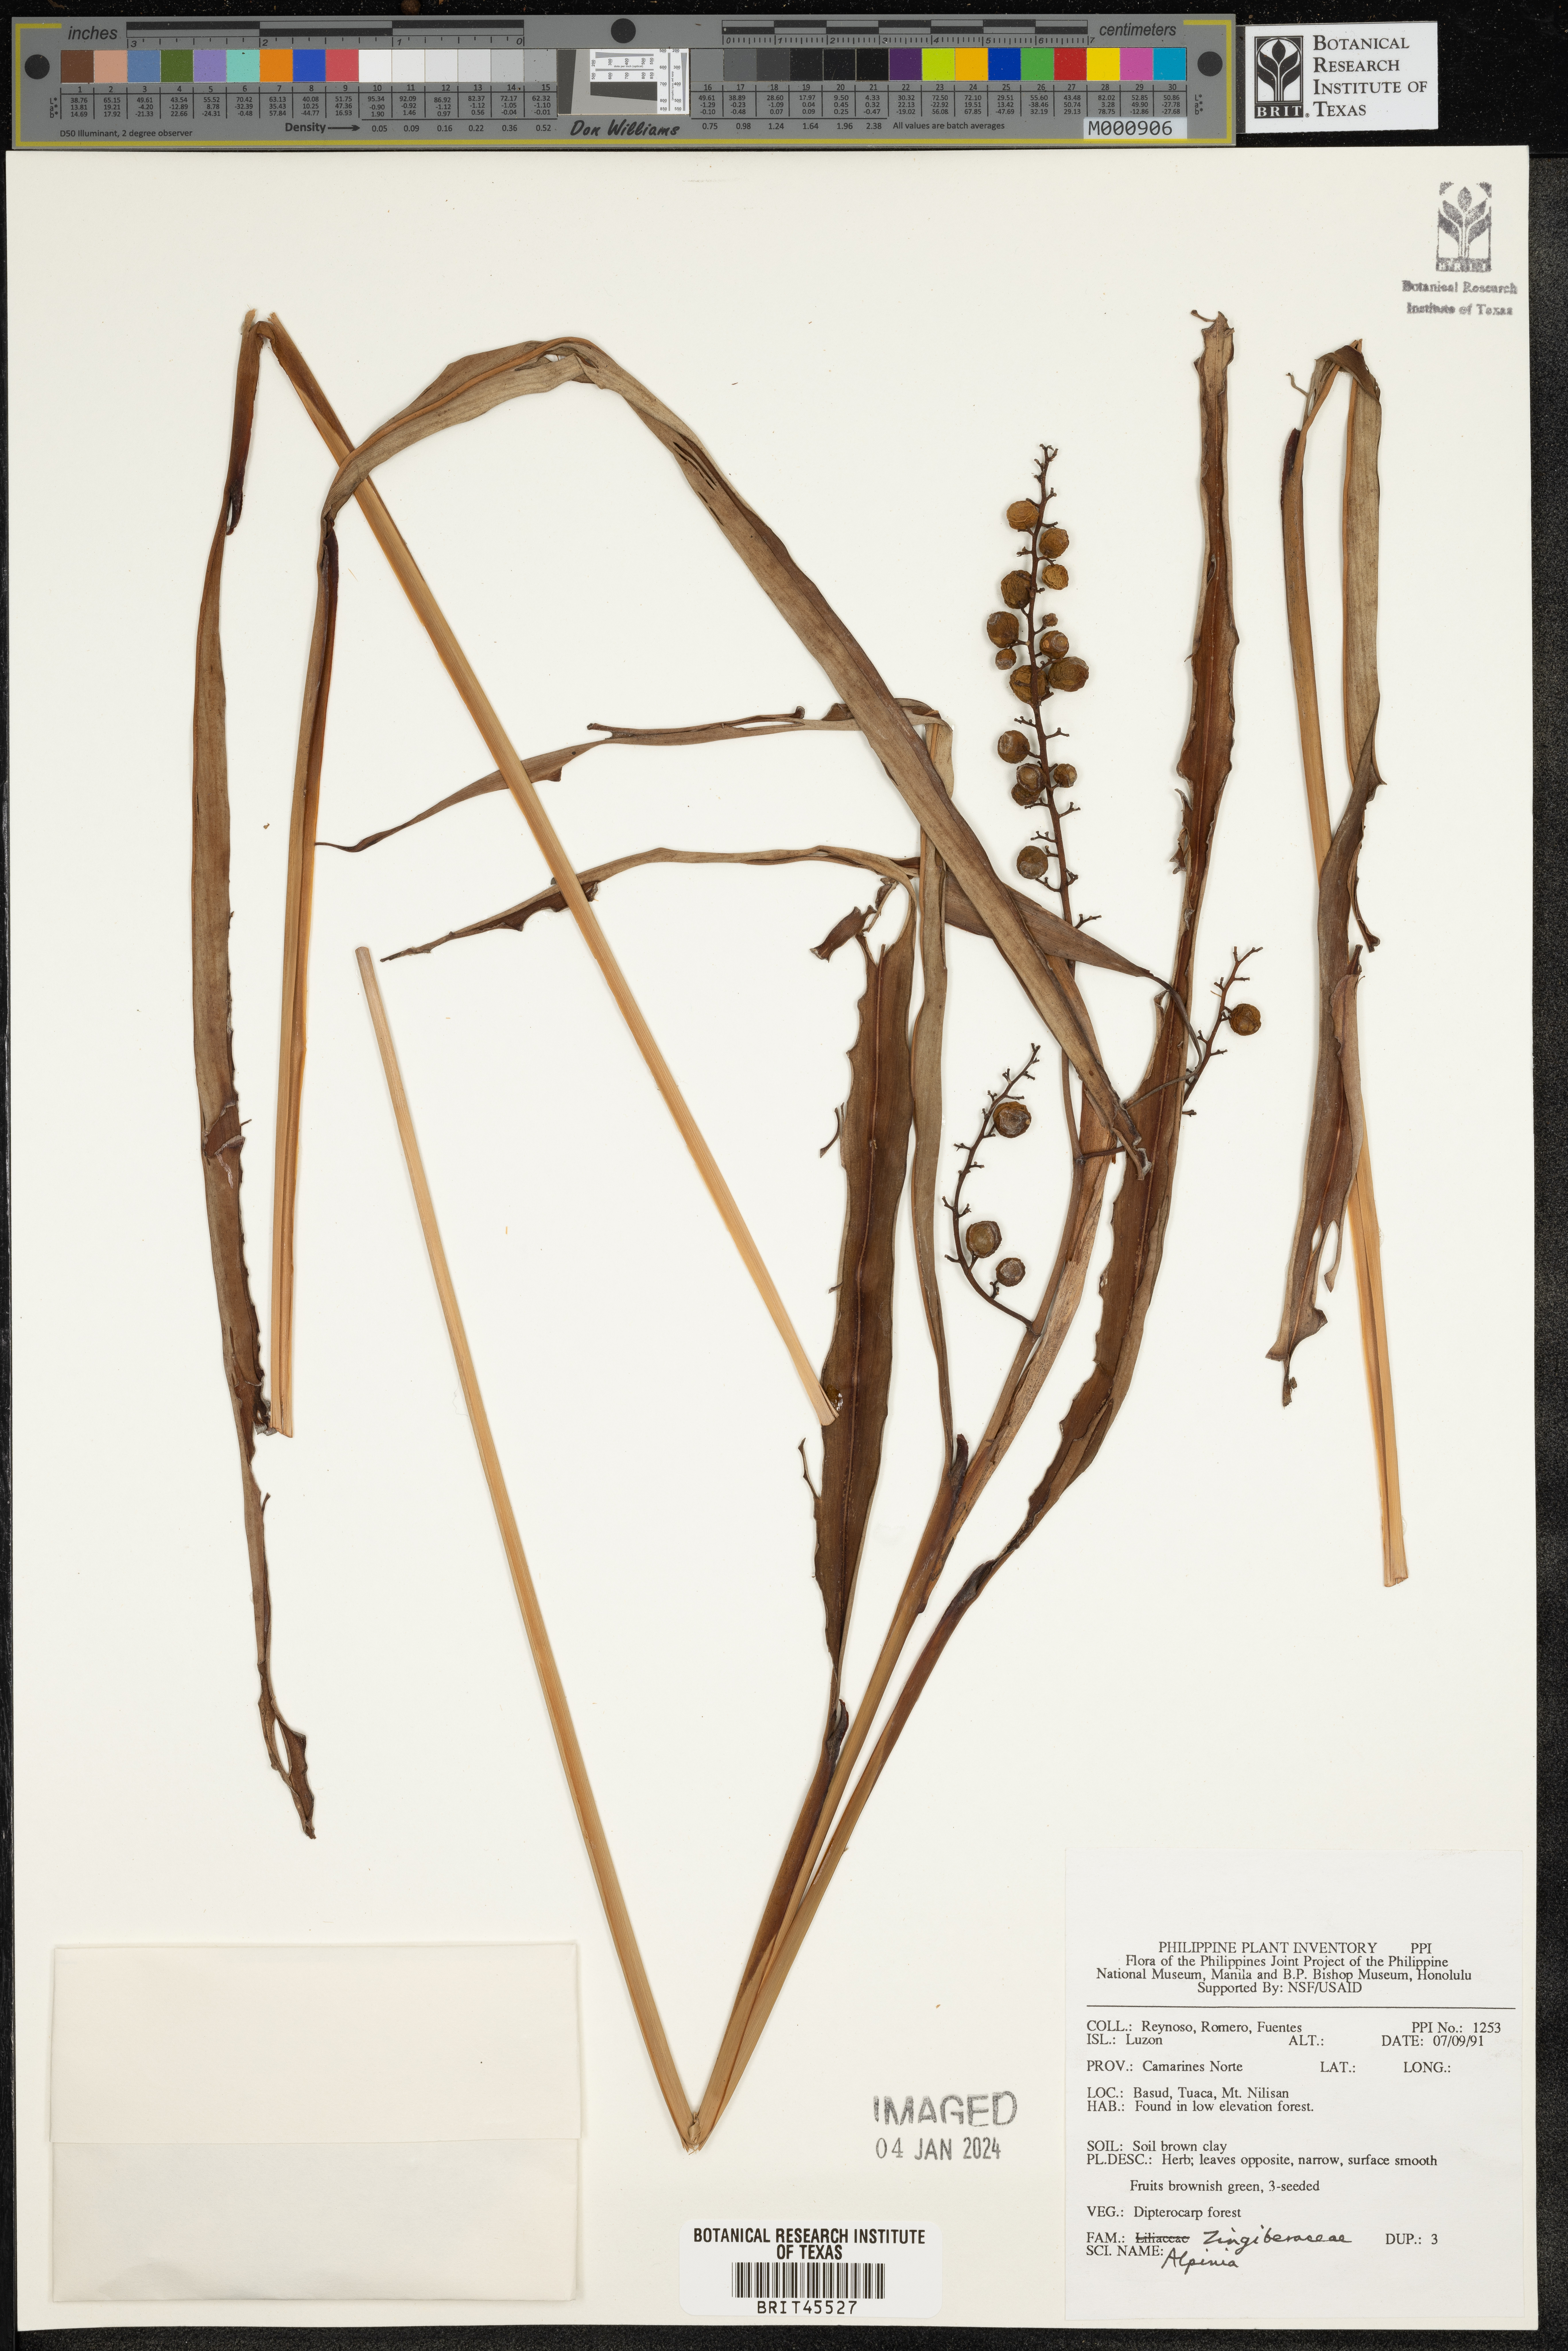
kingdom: Plantae
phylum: Tracheophyta
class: Liliopsida
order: Zingiberales
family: Zingiberaceae
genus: Alpinia
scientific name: Alpinia
